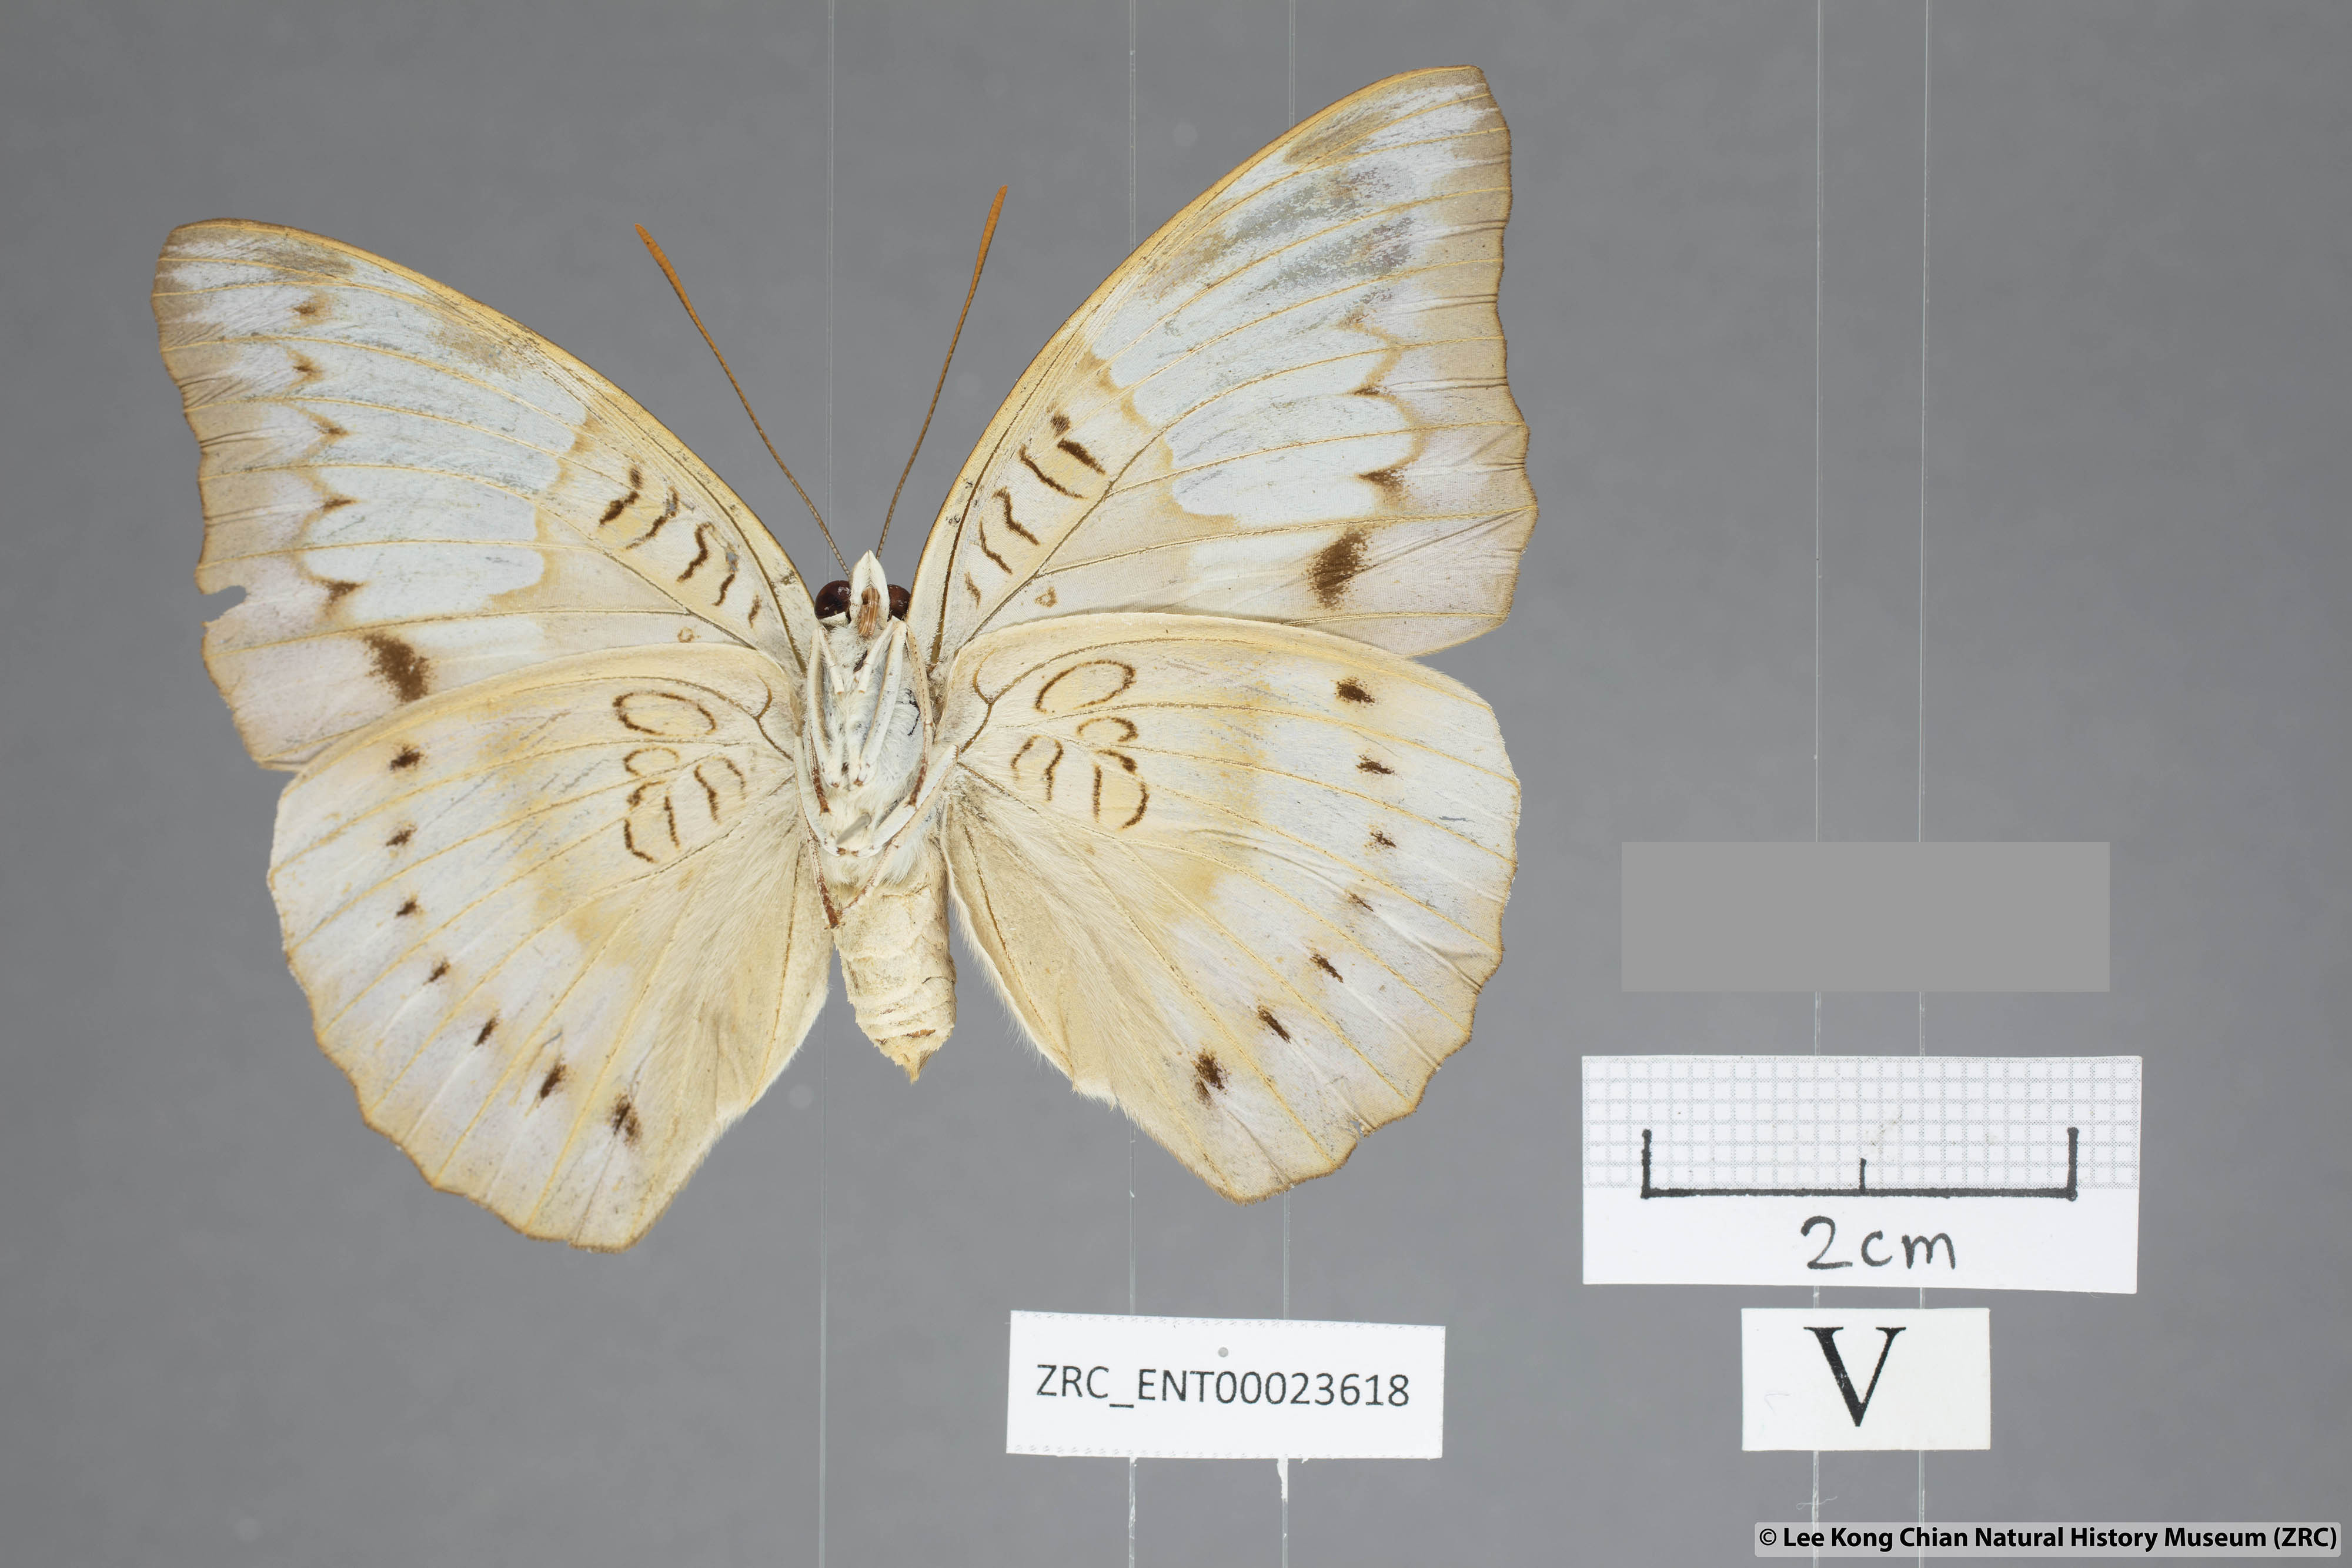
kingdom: Animalia
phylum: Arthropoda
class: Insecta
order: Lepidoptera
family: Nymphalidae
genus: Euthalia
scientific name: Euthalia alpheda
